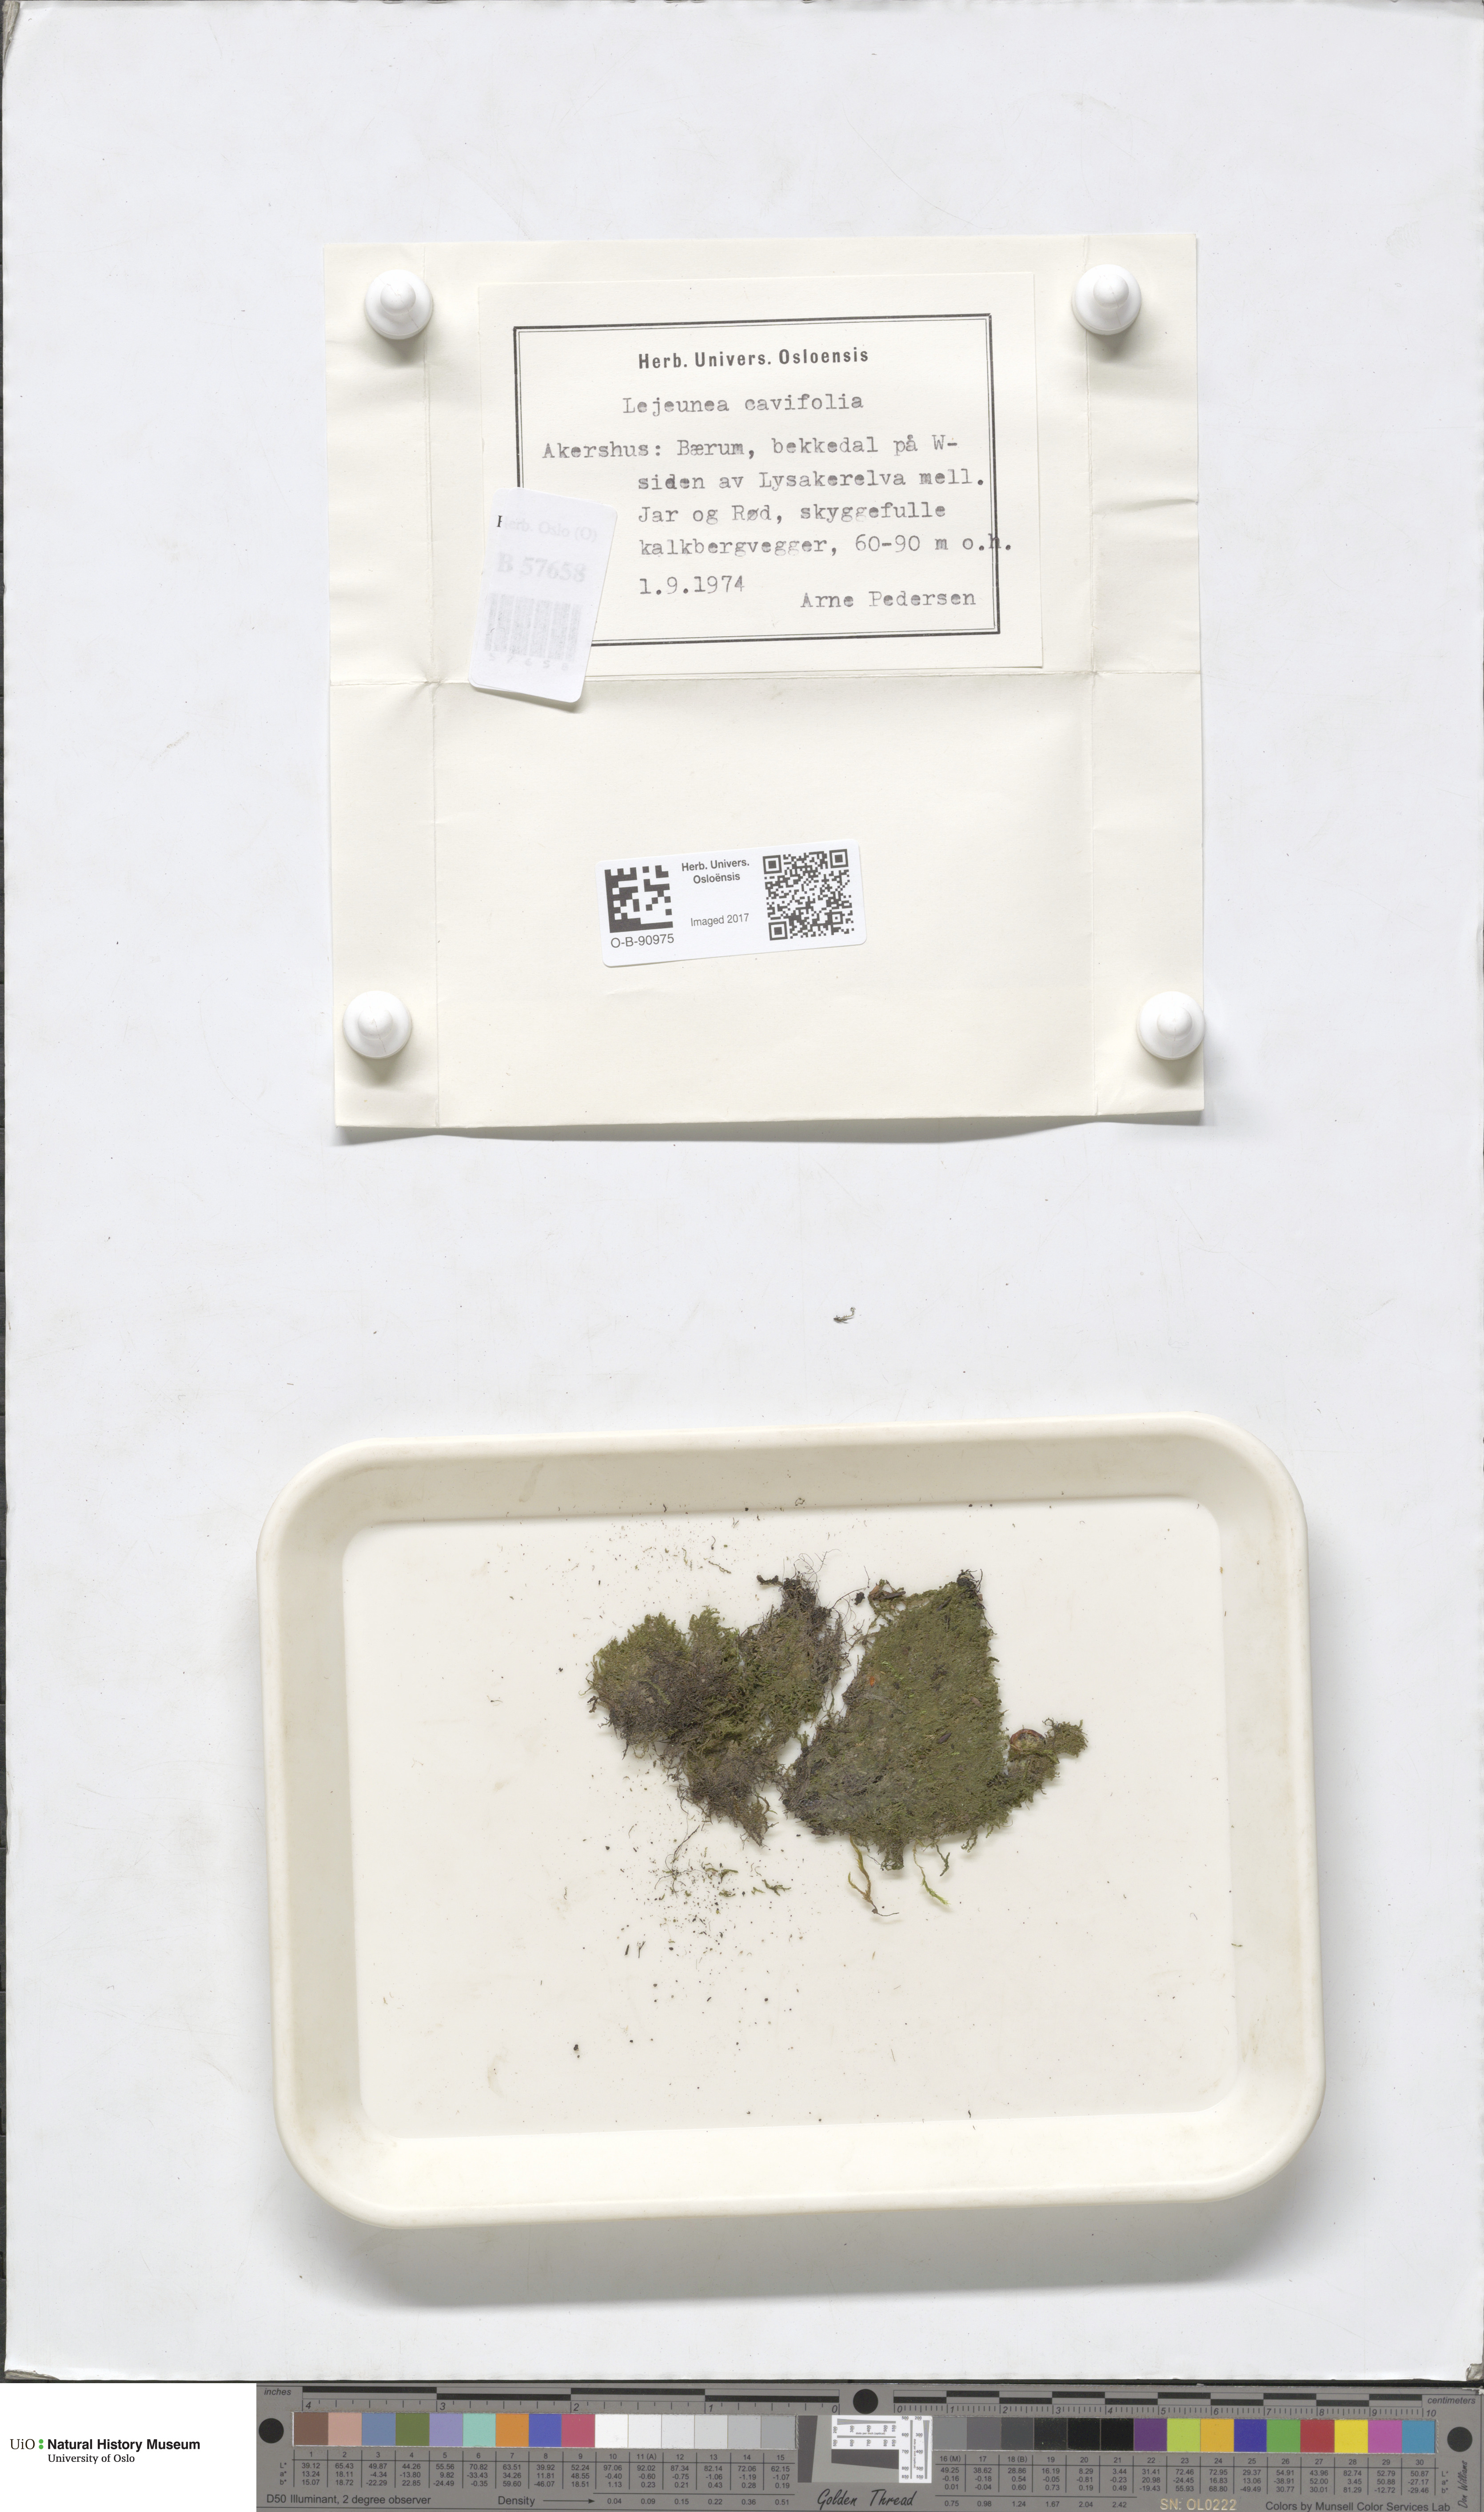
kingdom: Plantae
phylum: Marchantiophyta
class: Jungermanniopsida
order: Porellales
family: Lejeuneaceae
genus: Lejeunea
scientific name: Lejeunea cavifolia
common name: Least pouncewort
